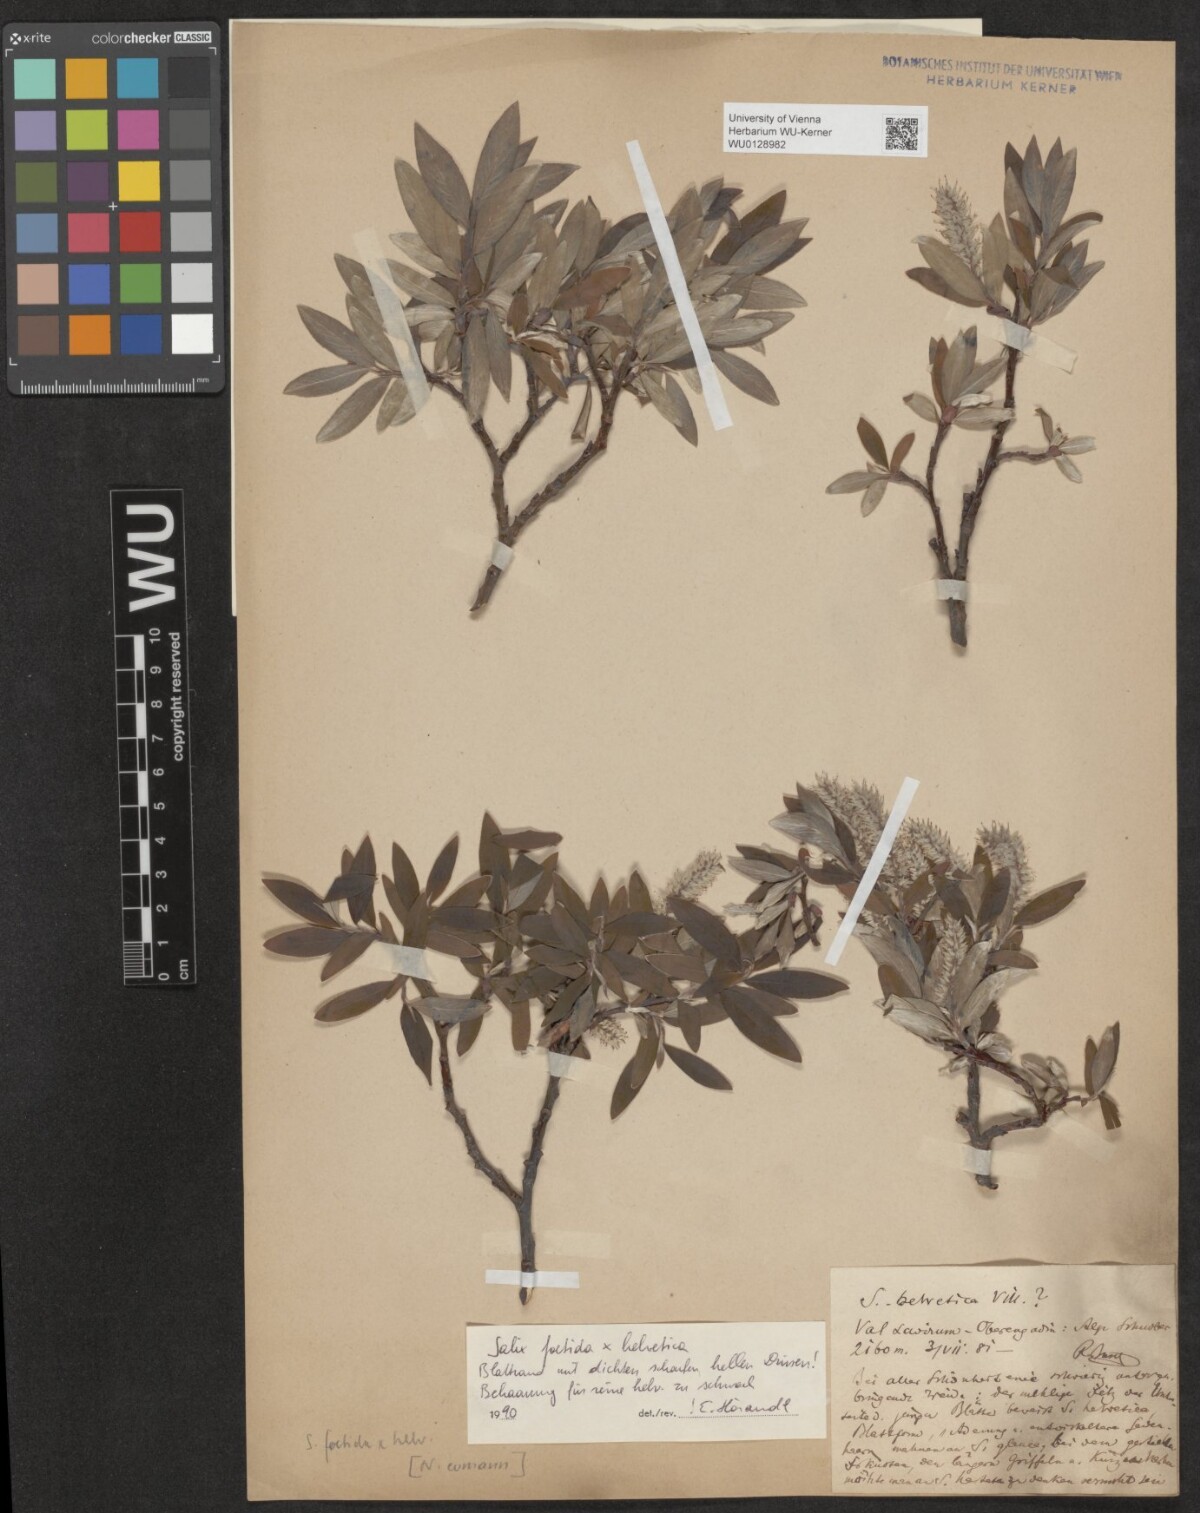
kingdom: Plantae
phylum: Tracheophyta
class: Magnoliopsida
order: Malpighiales
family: Salicaceae
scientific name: Salicaceae
